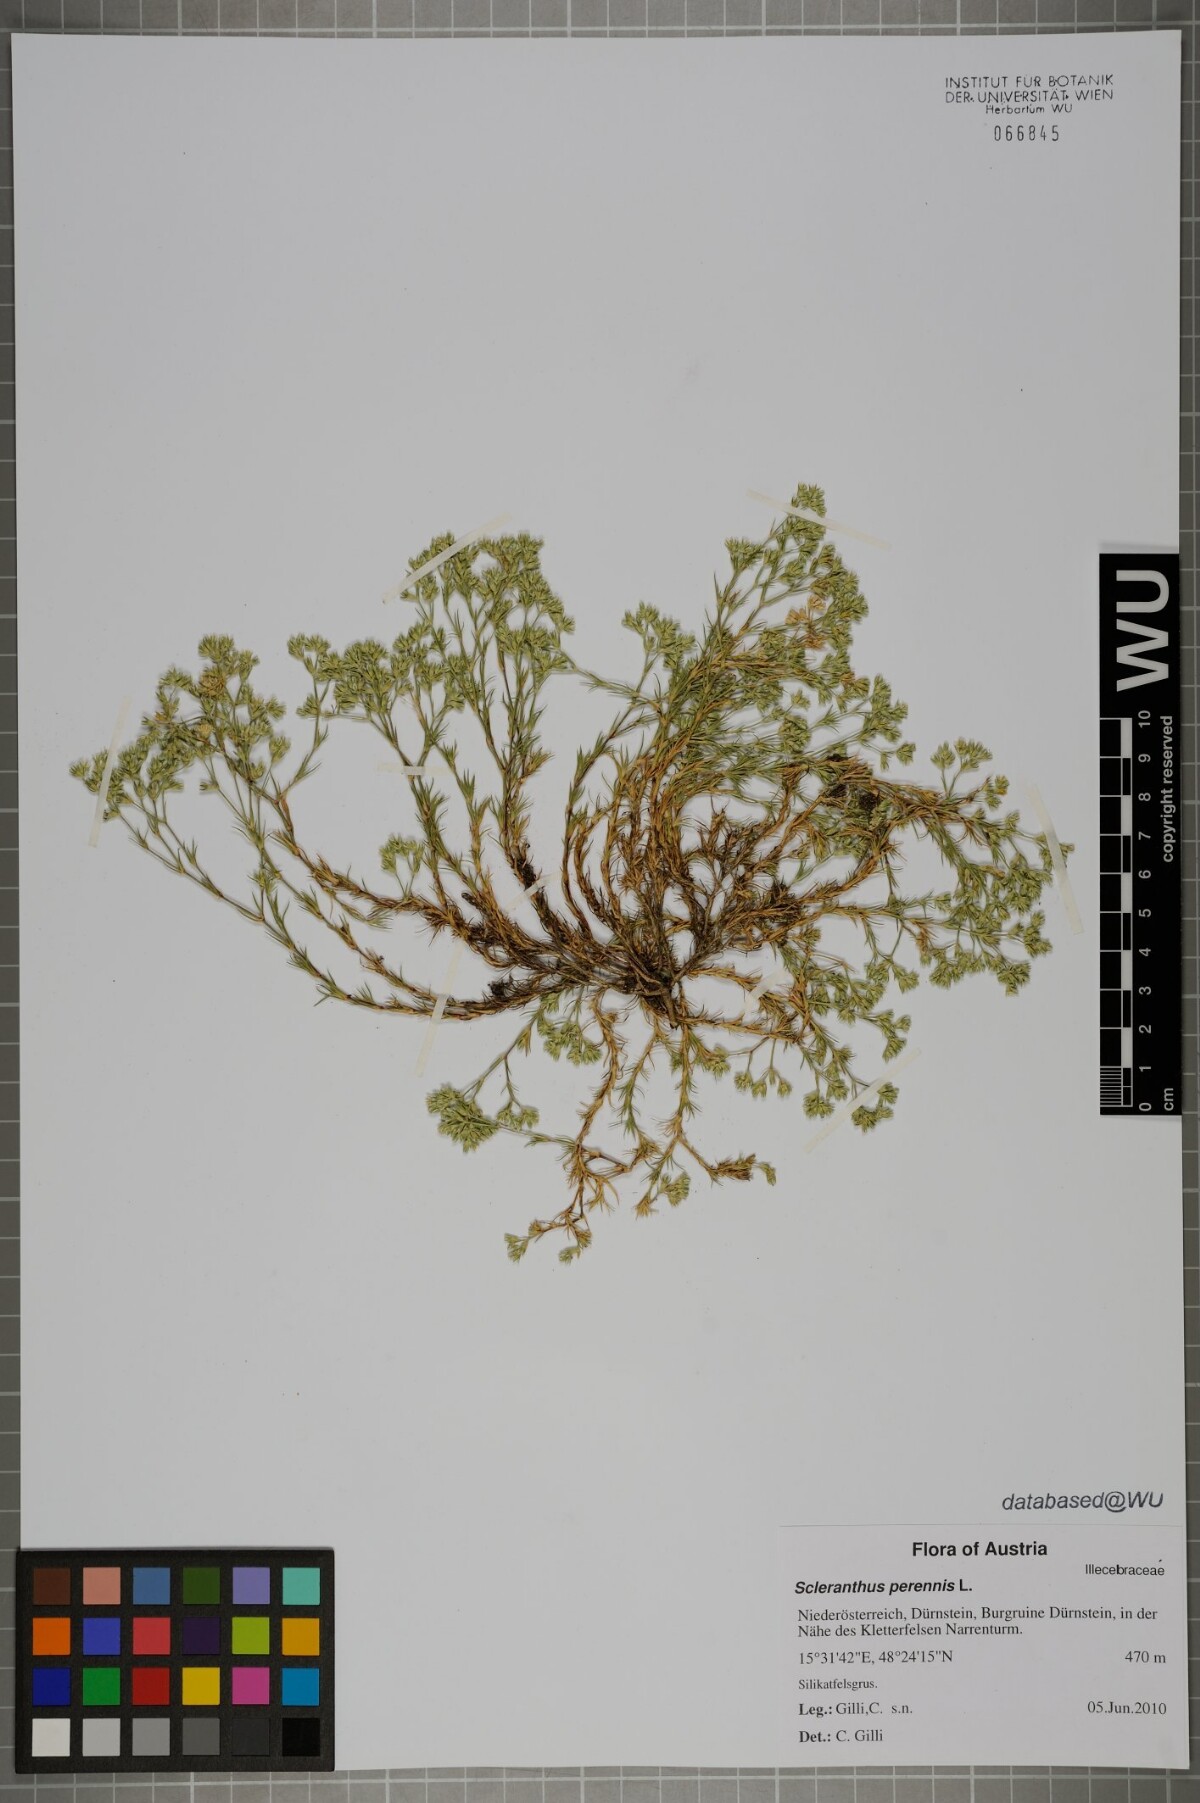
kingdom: Plantae
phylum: Tracheophyta
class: Magnoliopsida
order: Caryophyllales
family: Caryophyllaceae
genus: Scleranthus
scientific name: Scleranthus perennis
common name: Perennial knawel
